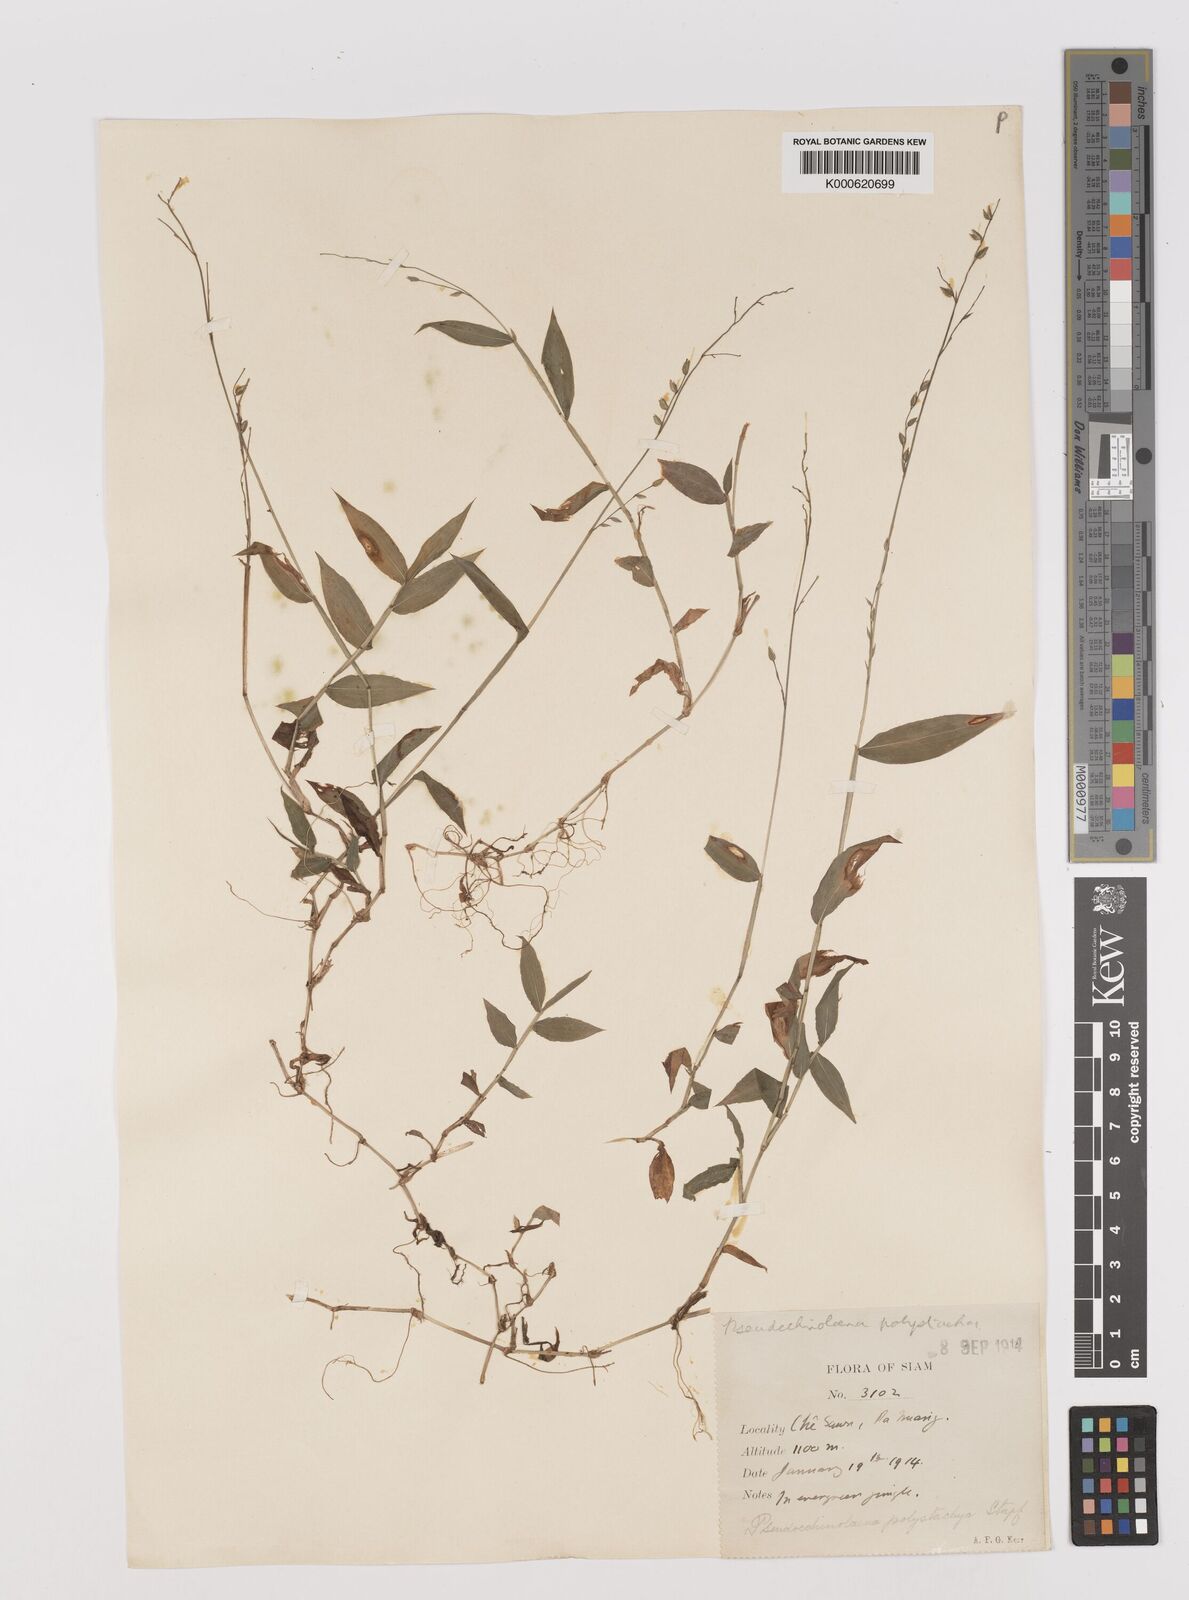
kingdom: Plantae
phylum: Tracheophyta
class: Liliopsida
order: Poales
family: Poaceae
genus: Pseudechinolaena
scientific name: Pseudechinolaena polystachya
